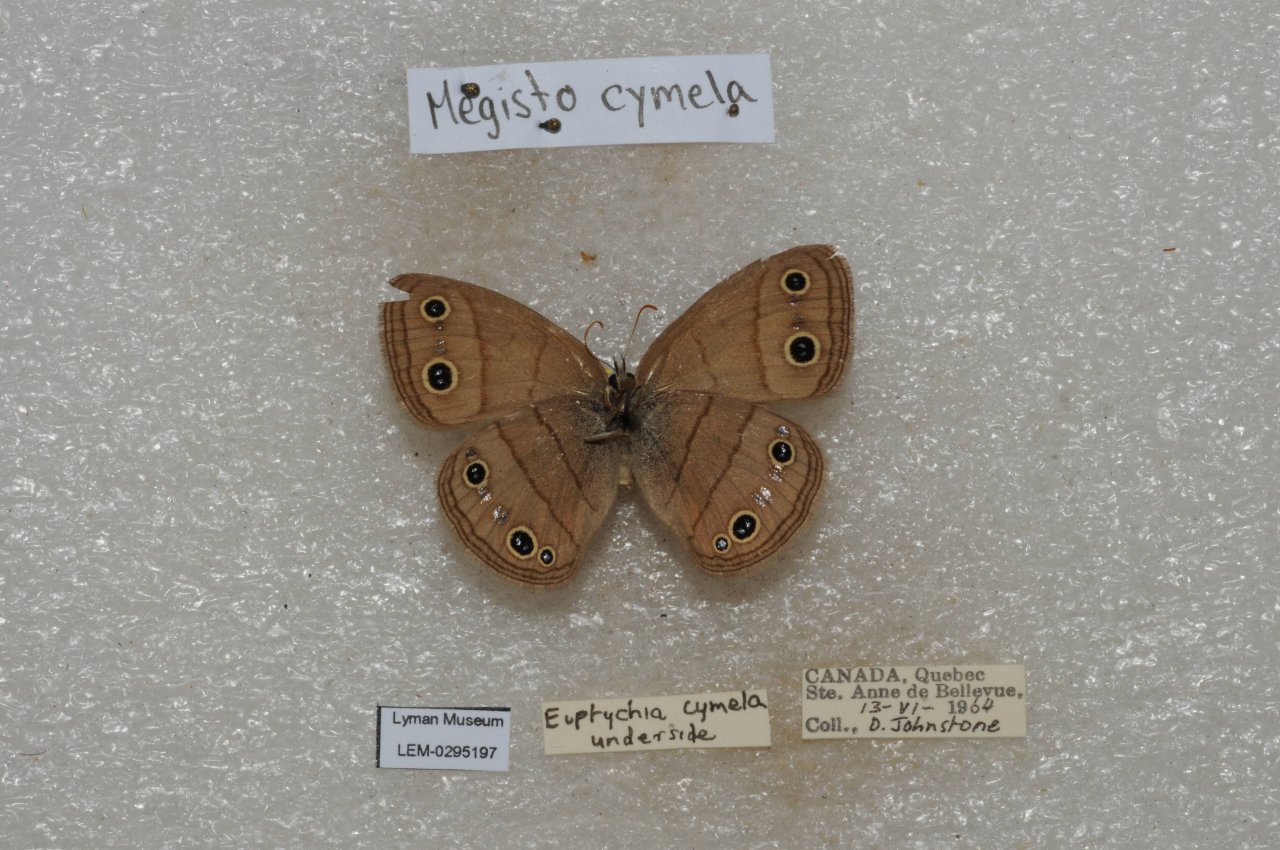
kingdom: Animalia
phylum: Arthropoda
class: Insecta
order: Lepidoptera
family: Nymphalidae
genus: Euptychia
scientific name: Euptychia cymela
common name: Little Wood Satyr
